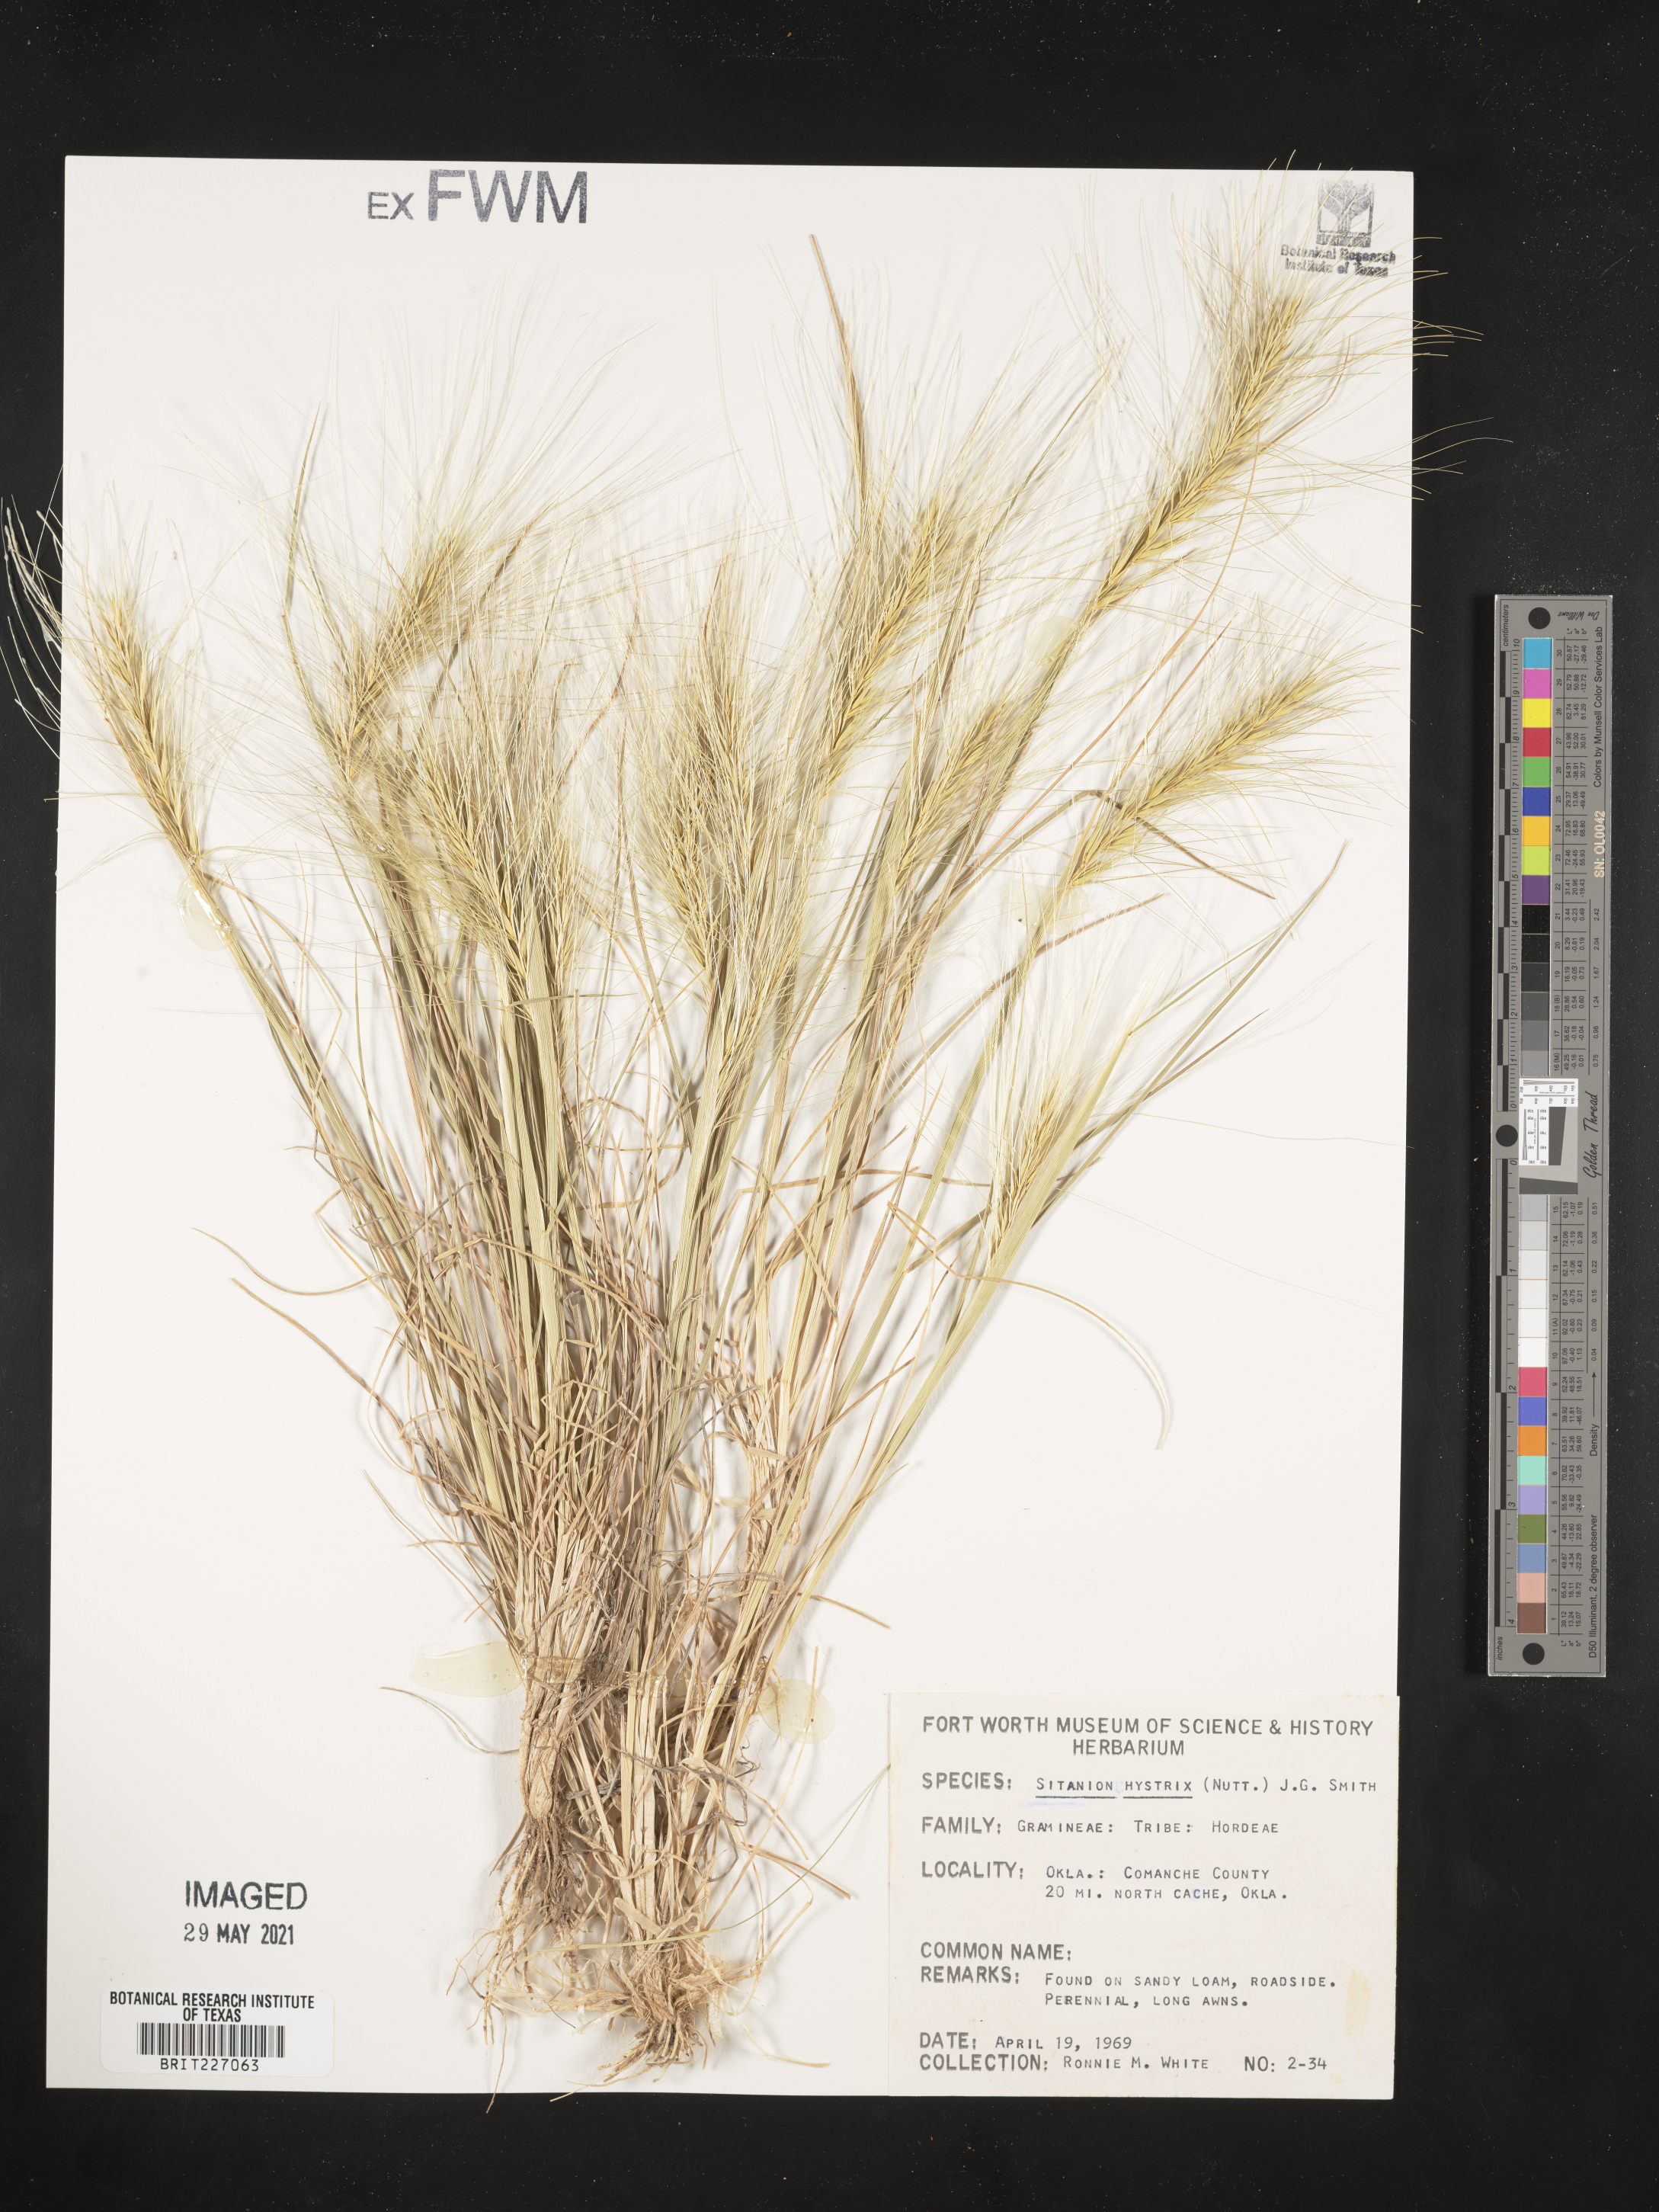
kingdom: Plantae
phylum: Tracheophyta
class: Liliopsida
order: Poales
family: Poaceae
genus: Elymus
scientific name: Elymus elymoides
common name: Bottlebrush squirreltail
